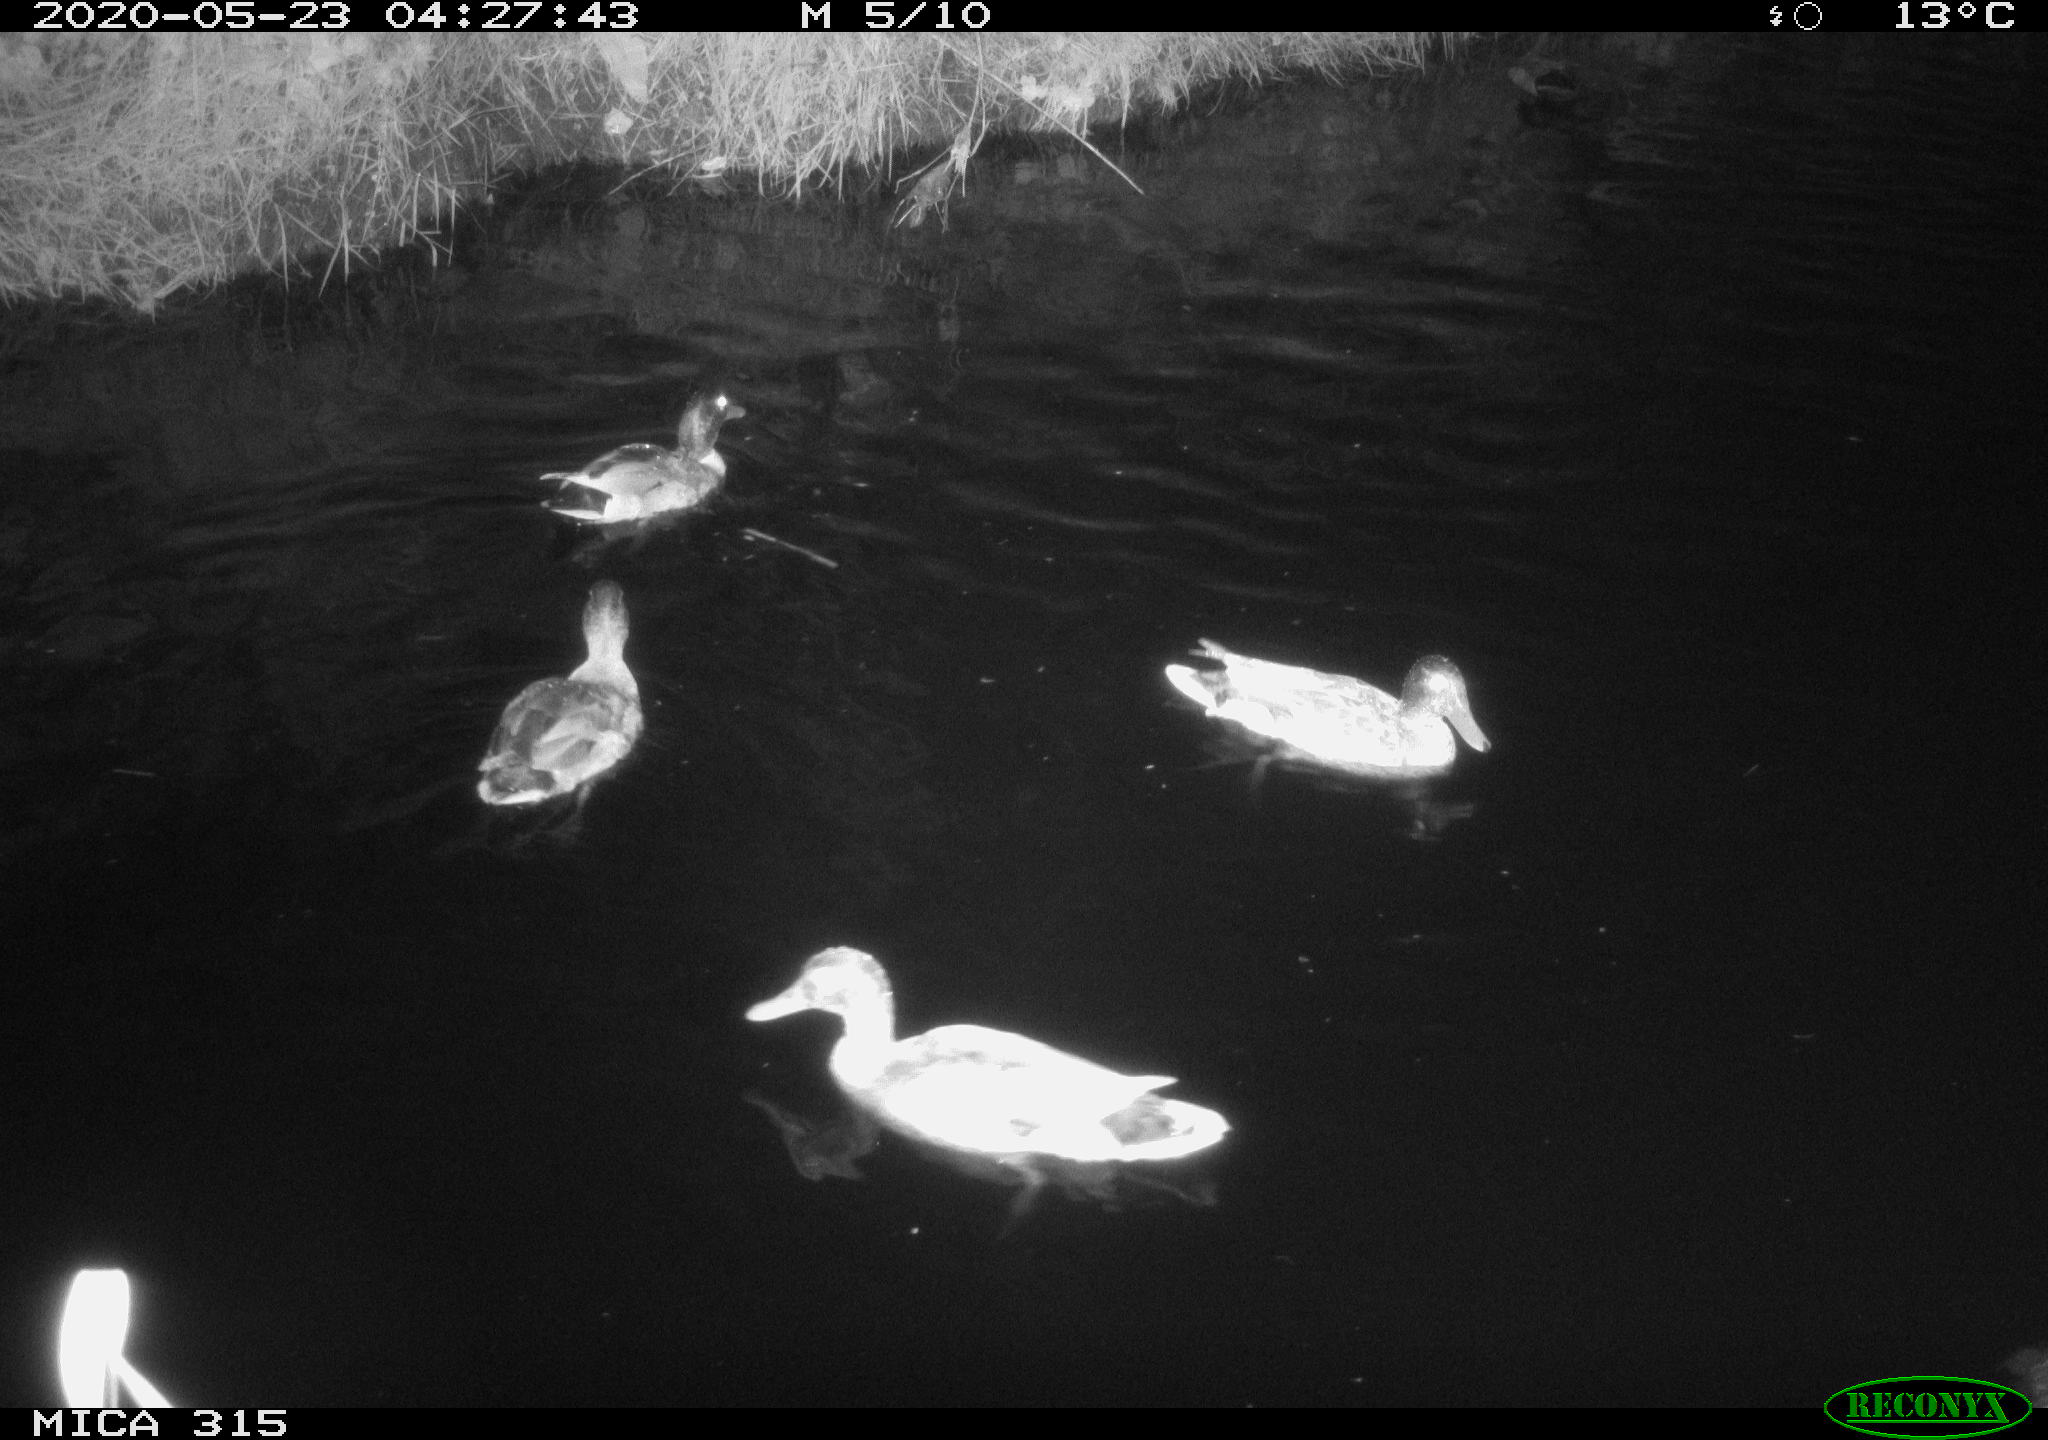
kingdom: Animalia
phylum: Chordata
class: Aves
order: Anseriformes
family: Anatidae
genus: Anas
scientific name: Anas platyrhynchos
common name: Mallard
